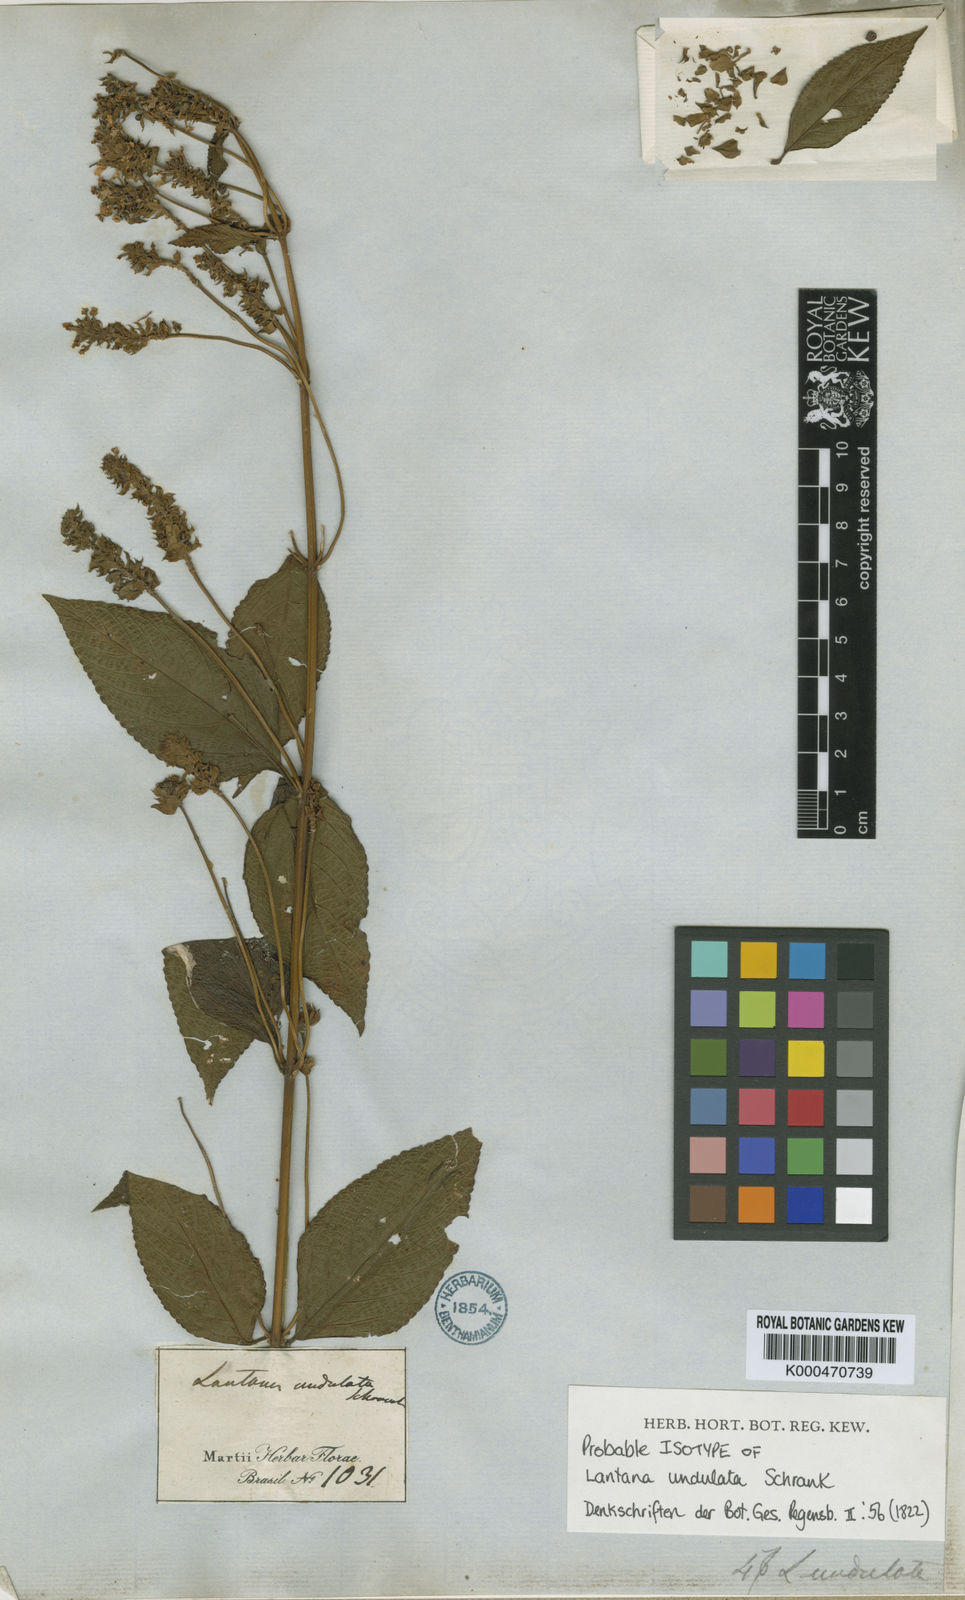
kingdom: Plantae
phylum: Tracheophyta
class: Magnoliopsida
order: Lamiales
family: Verbenaceae
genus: Lantana
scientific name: Lantana
